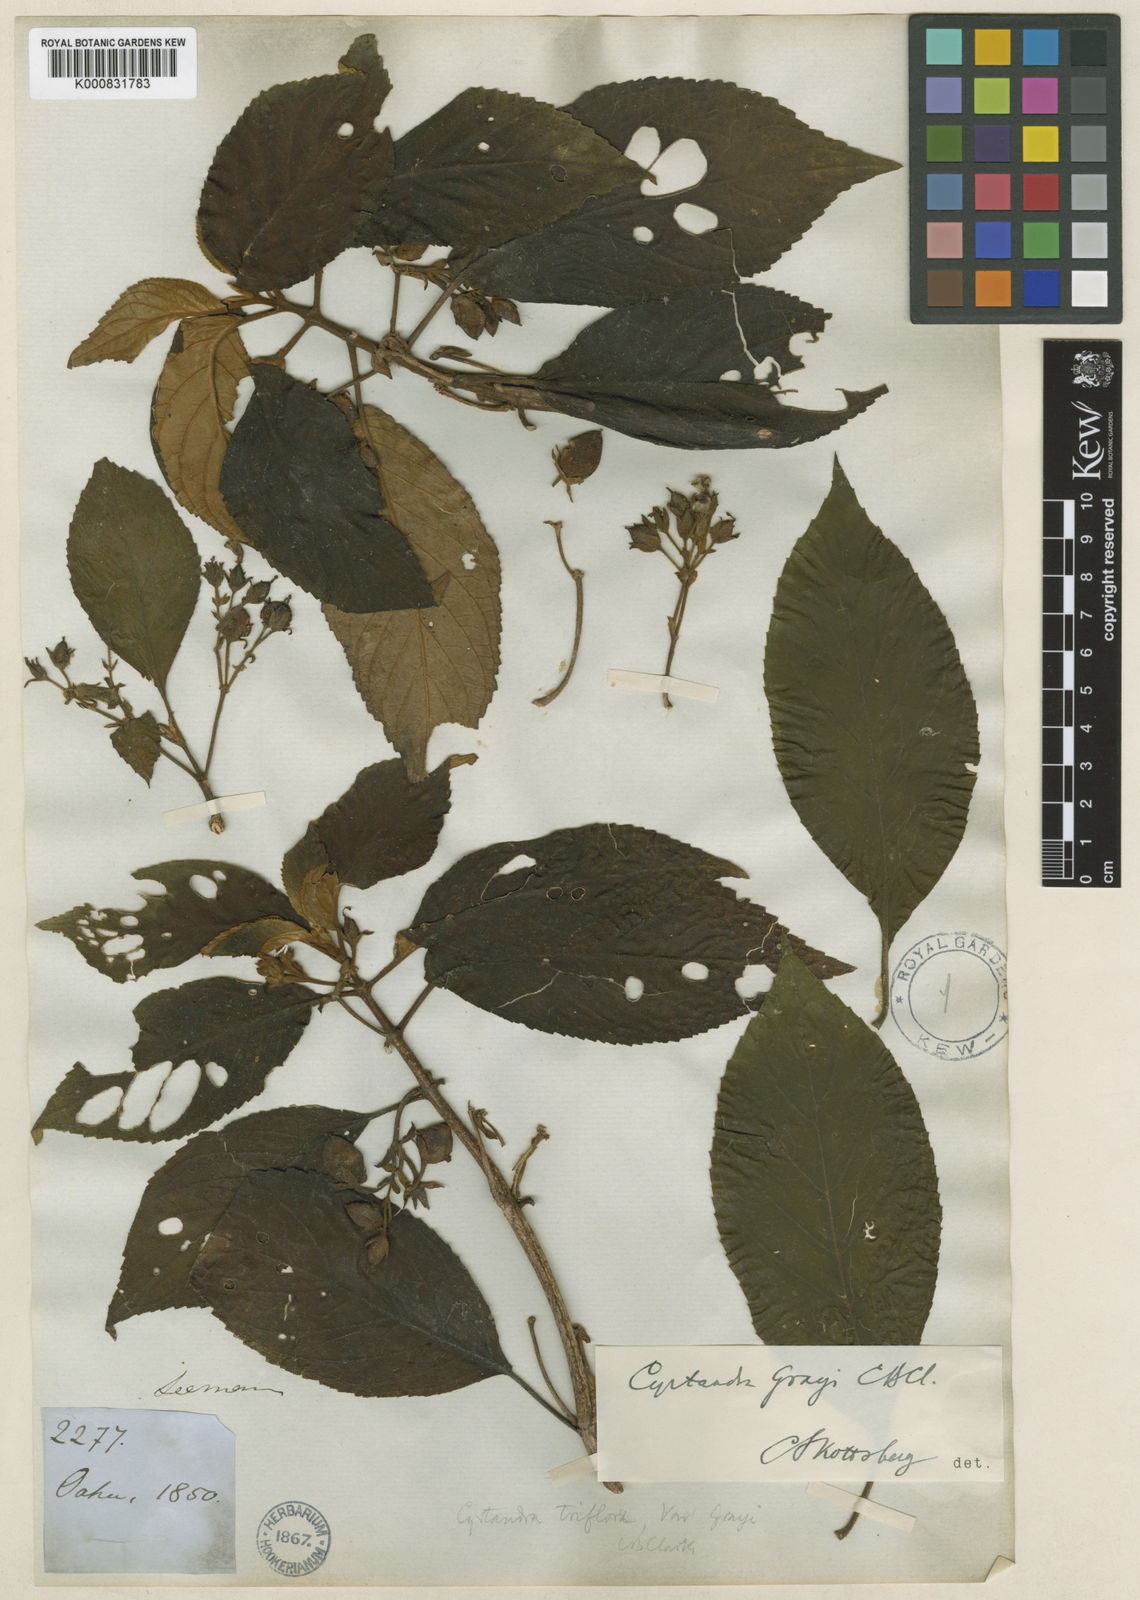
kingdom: Plantae
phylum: Tracheophyta
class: Magnoliopsida
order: Lamiales
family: Gesneriaceae
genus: Cyrtandra
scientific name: Cyrtandra grayi
